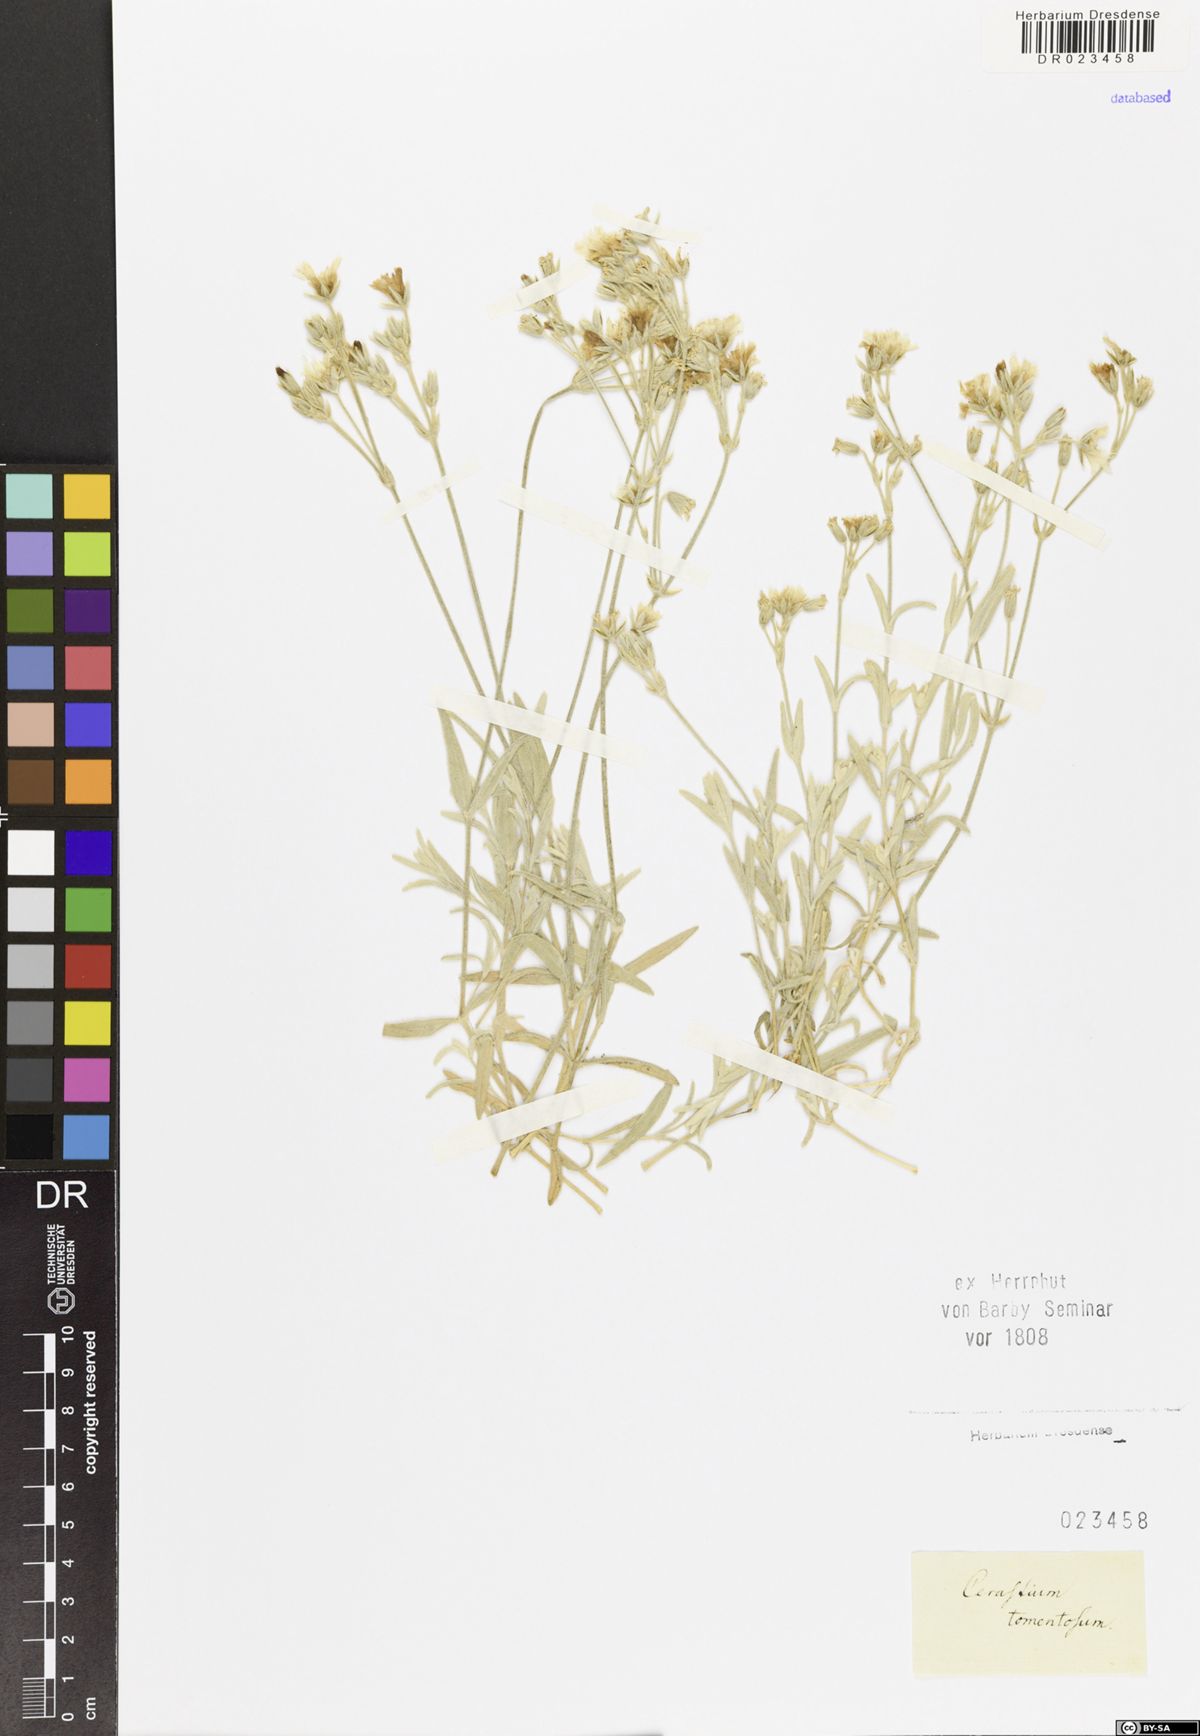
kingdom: Plantae
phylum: Tracheophyta
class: Magnoliopsida
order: Caryophyllales
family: Caryophyllaceae
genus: Cerastium
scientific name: Cerastium tomentosum
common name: Snow-in-summer
